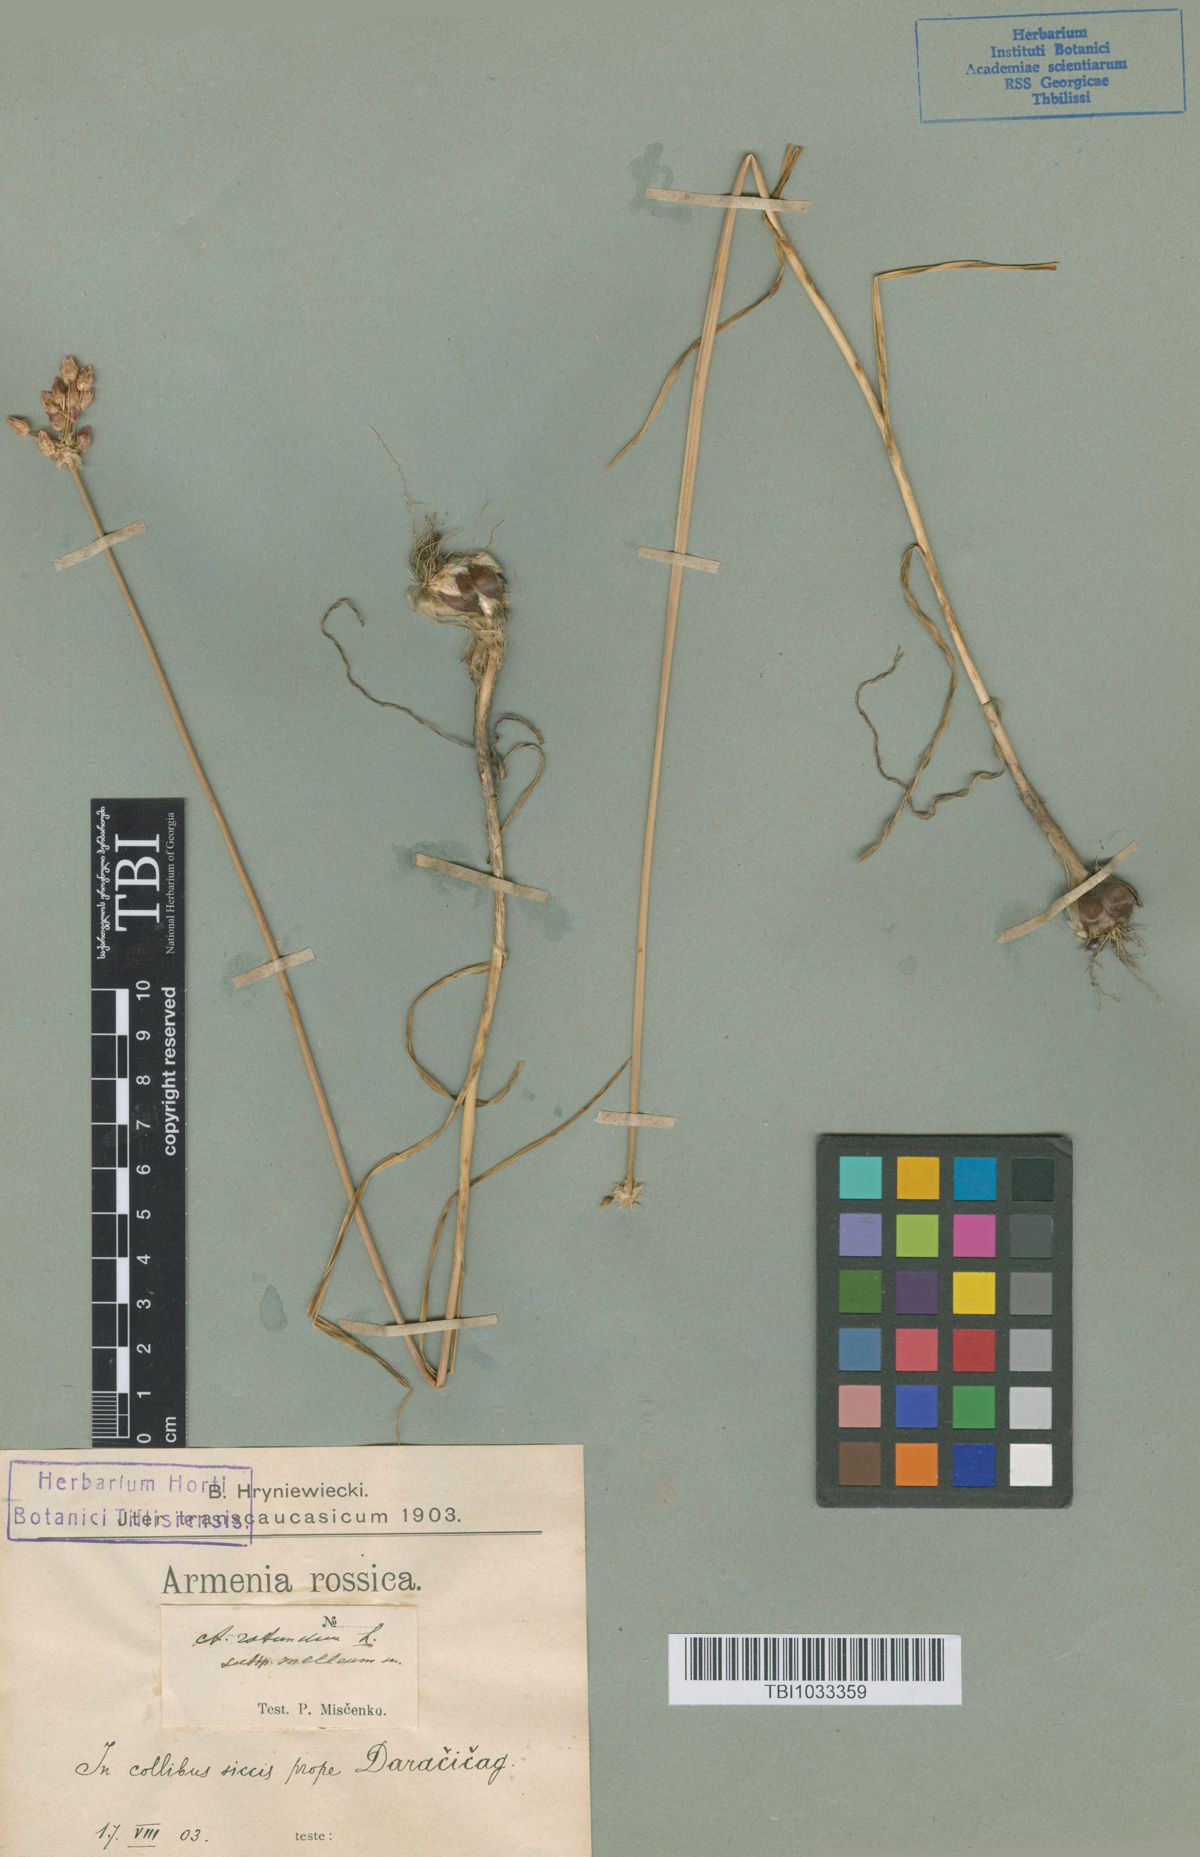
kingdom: Plantae
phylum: Tracheophyta
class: Liliopsida
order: Asparagales
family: Amaryllidaceae
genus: Allium
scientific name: Allium rotundum
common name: Sand leek
